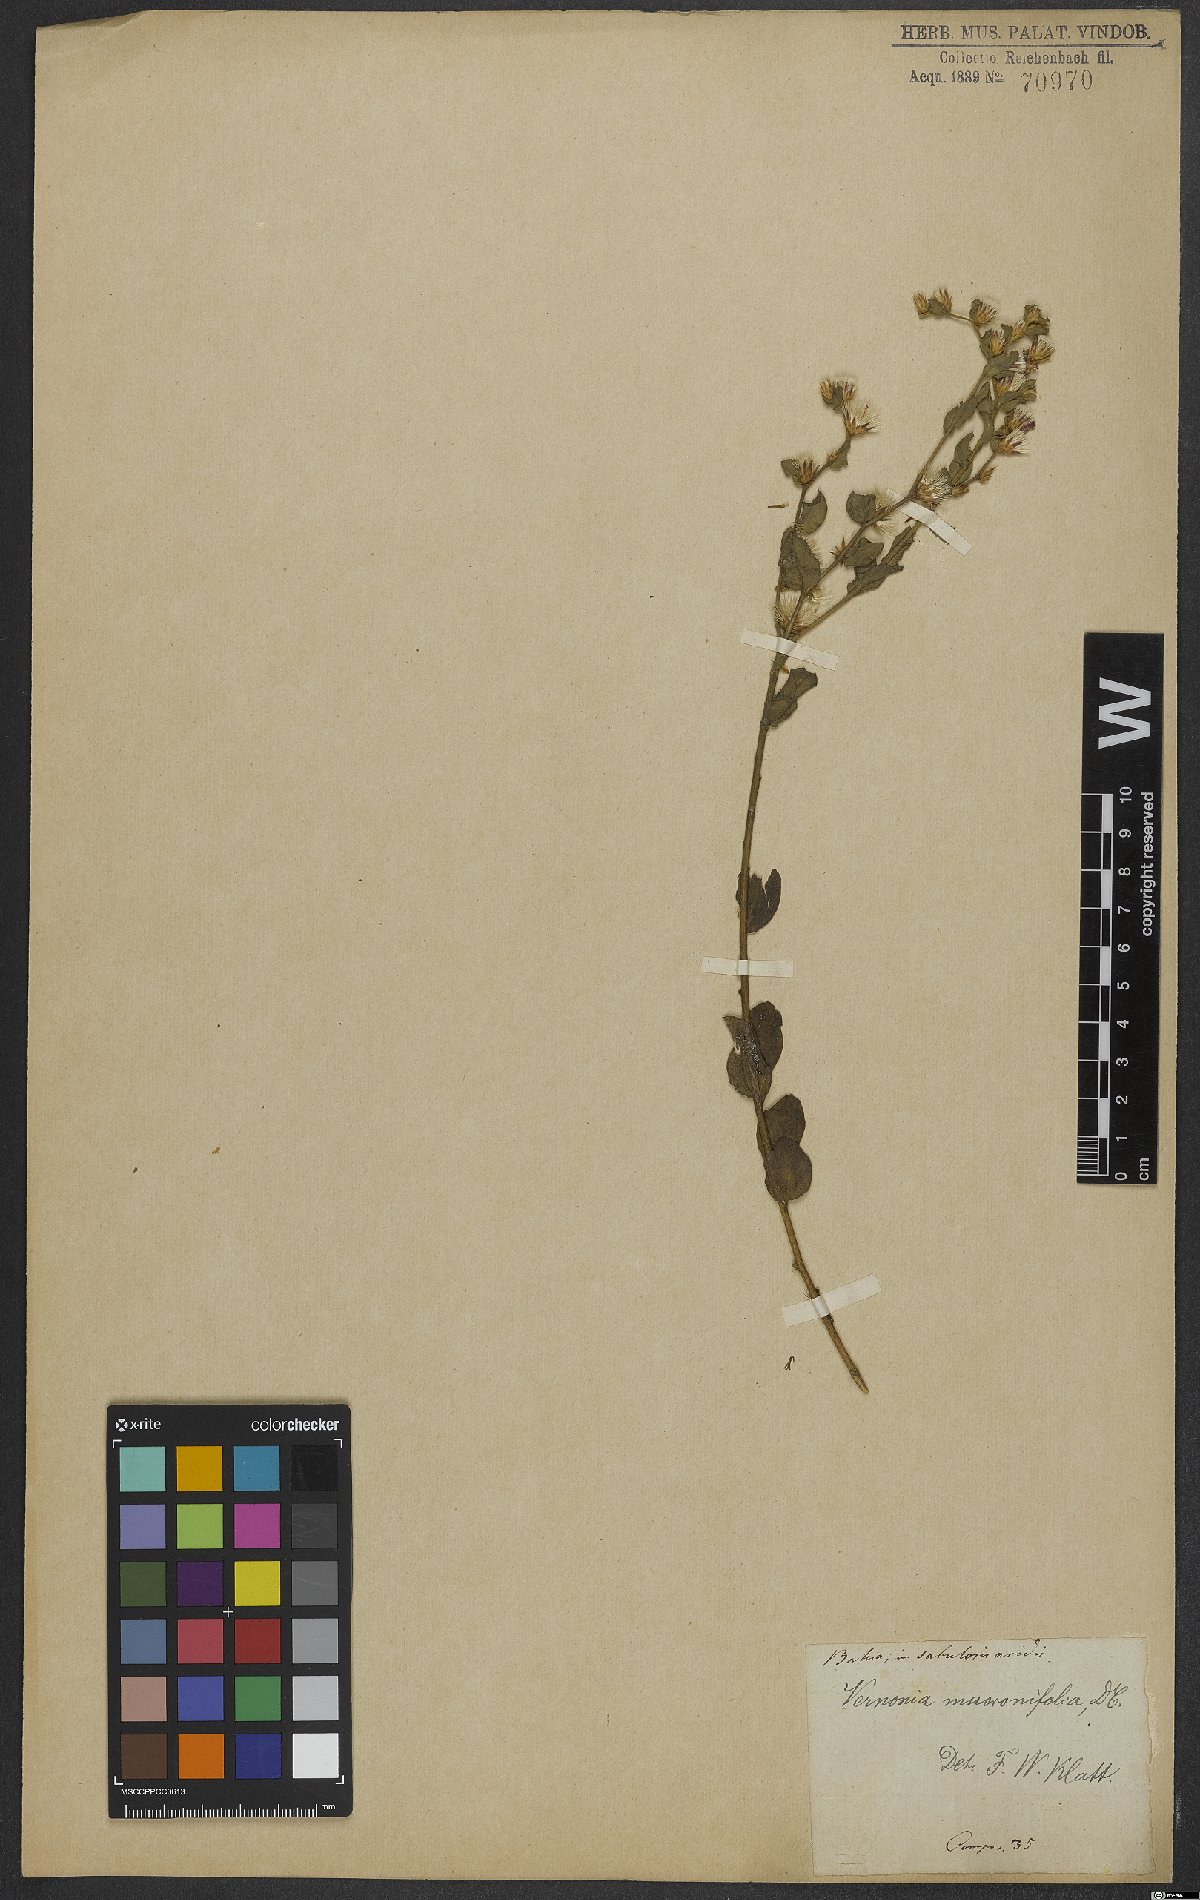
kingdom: Plantae
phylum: Tracheophyta
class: Magnoliopsida
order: Asterales
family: Asteraceae
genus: Lepidaploa
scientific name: Lepidaploa mucronifolia
